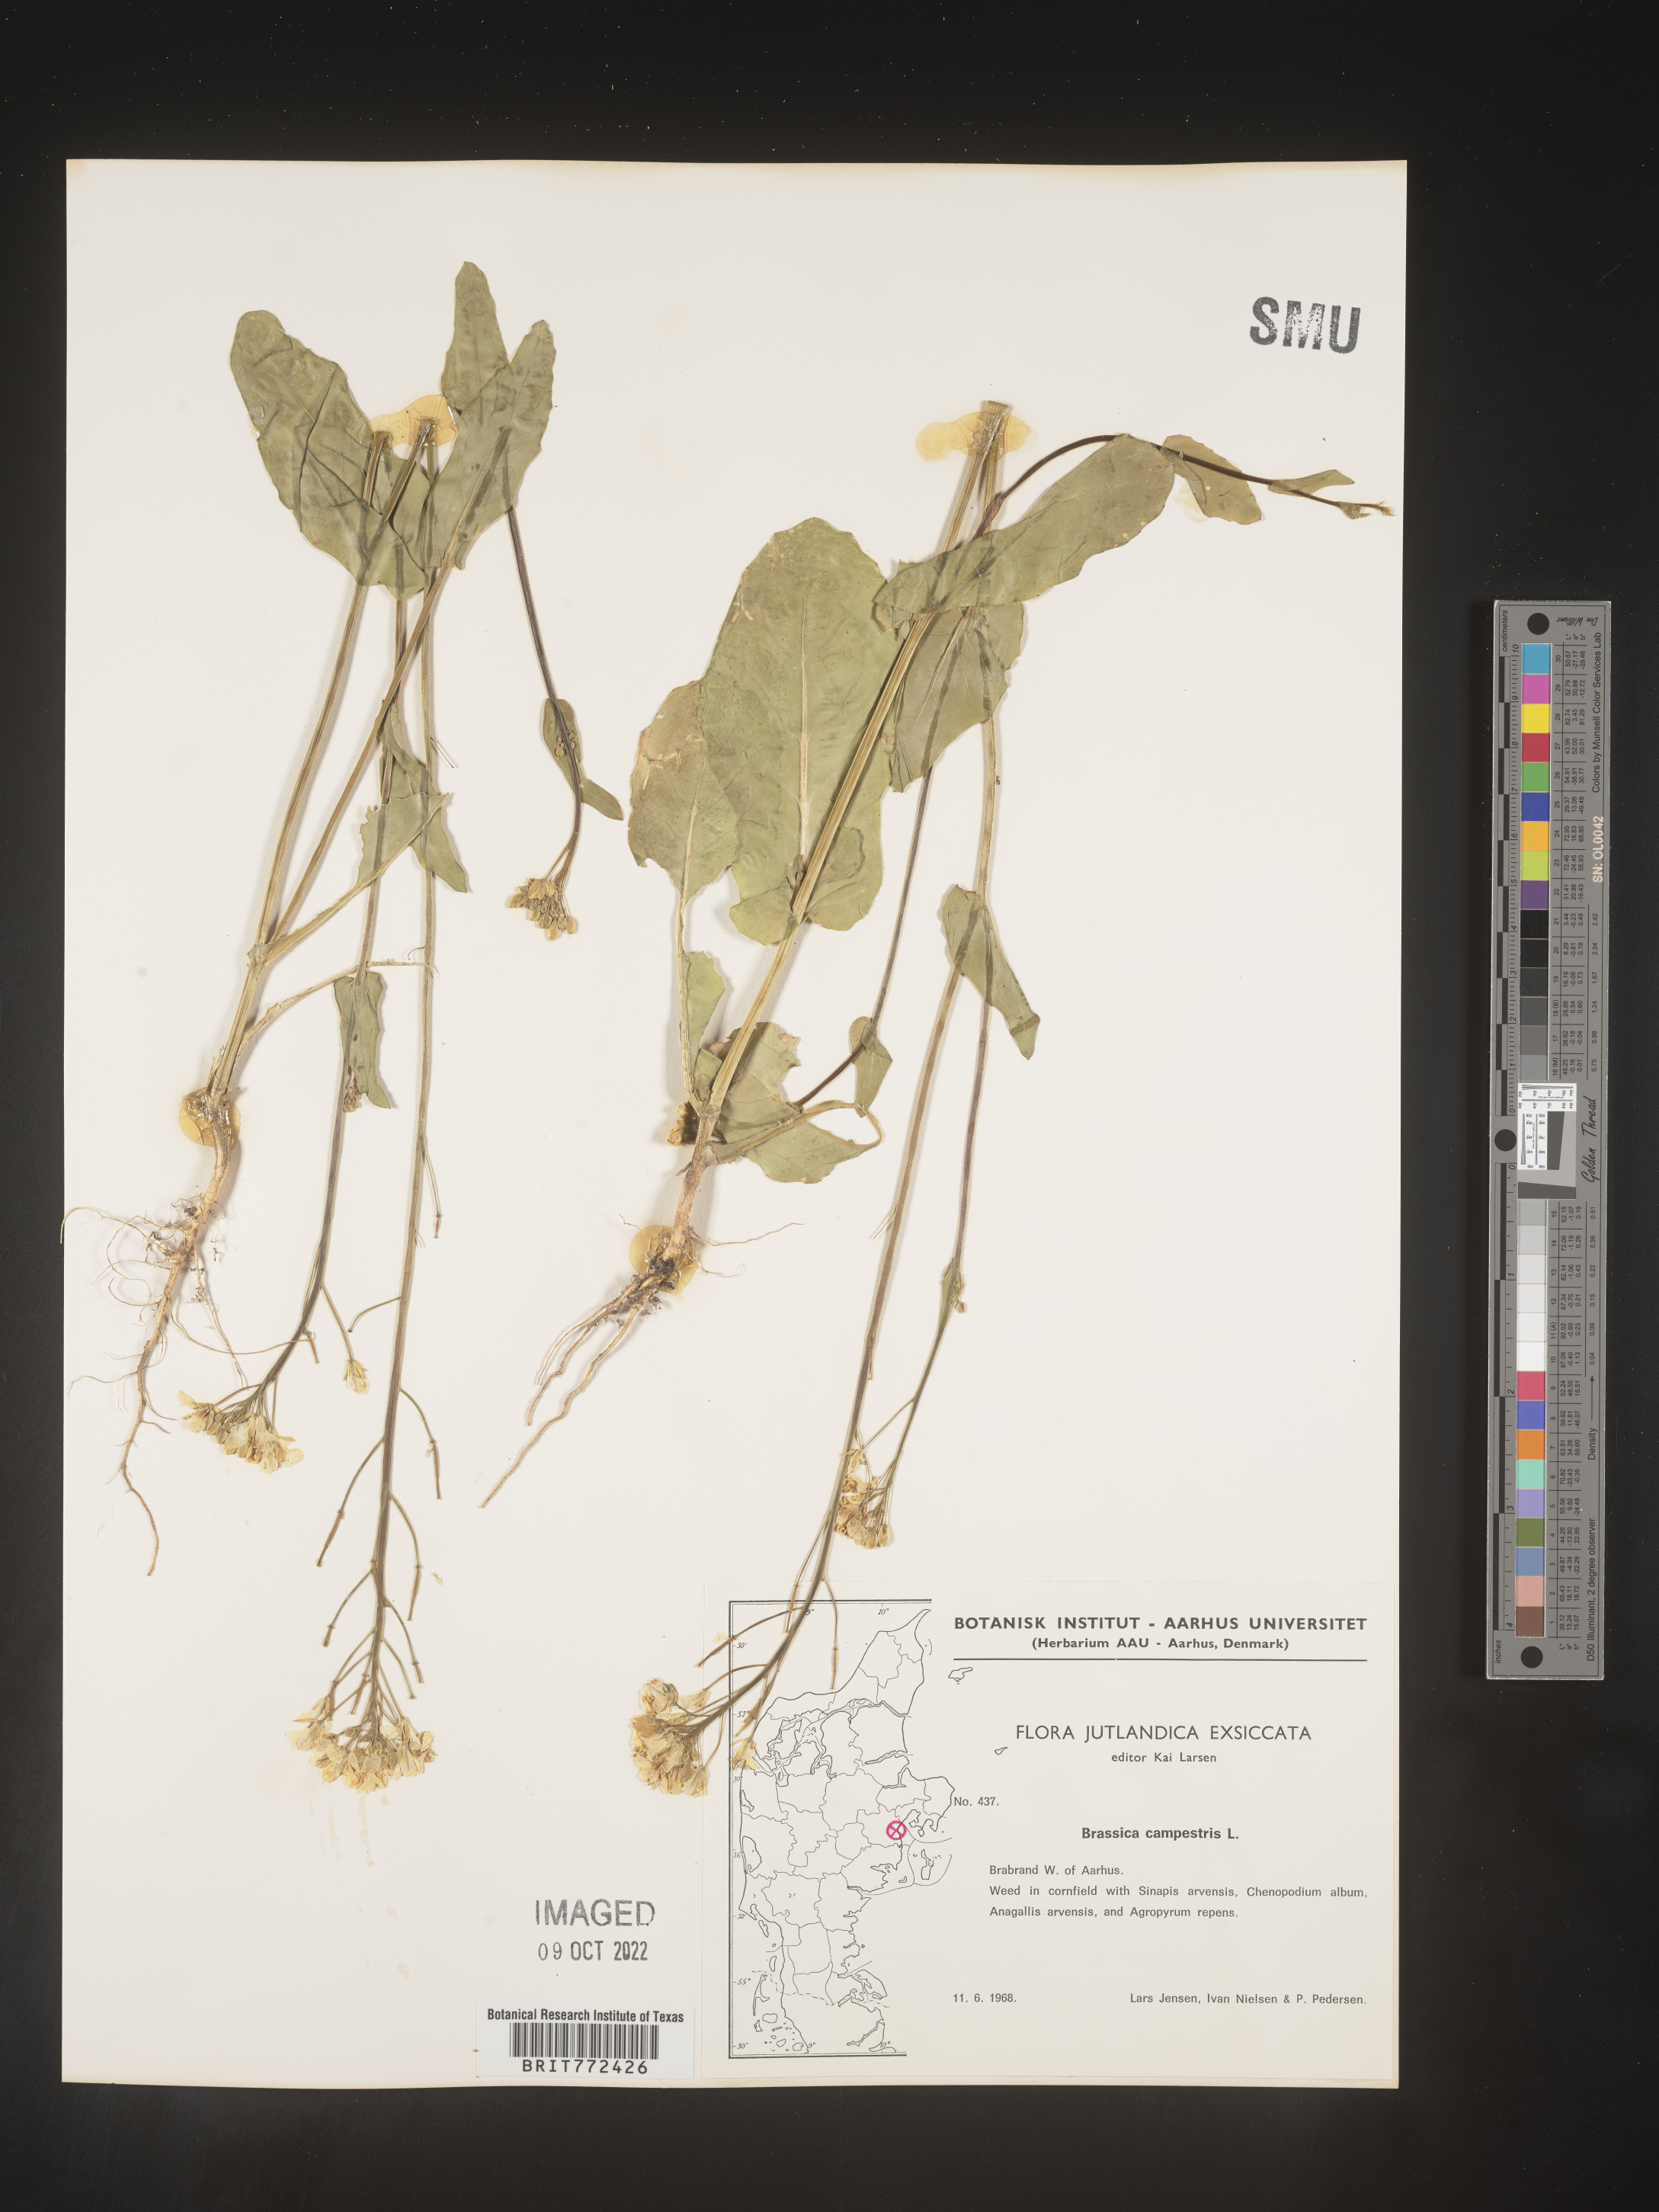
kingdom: Plantae
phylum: Tracheophyta
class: Magnoliopsida
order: Brassicales
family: Brassicaceae
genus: Brassica
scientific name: Brassica
